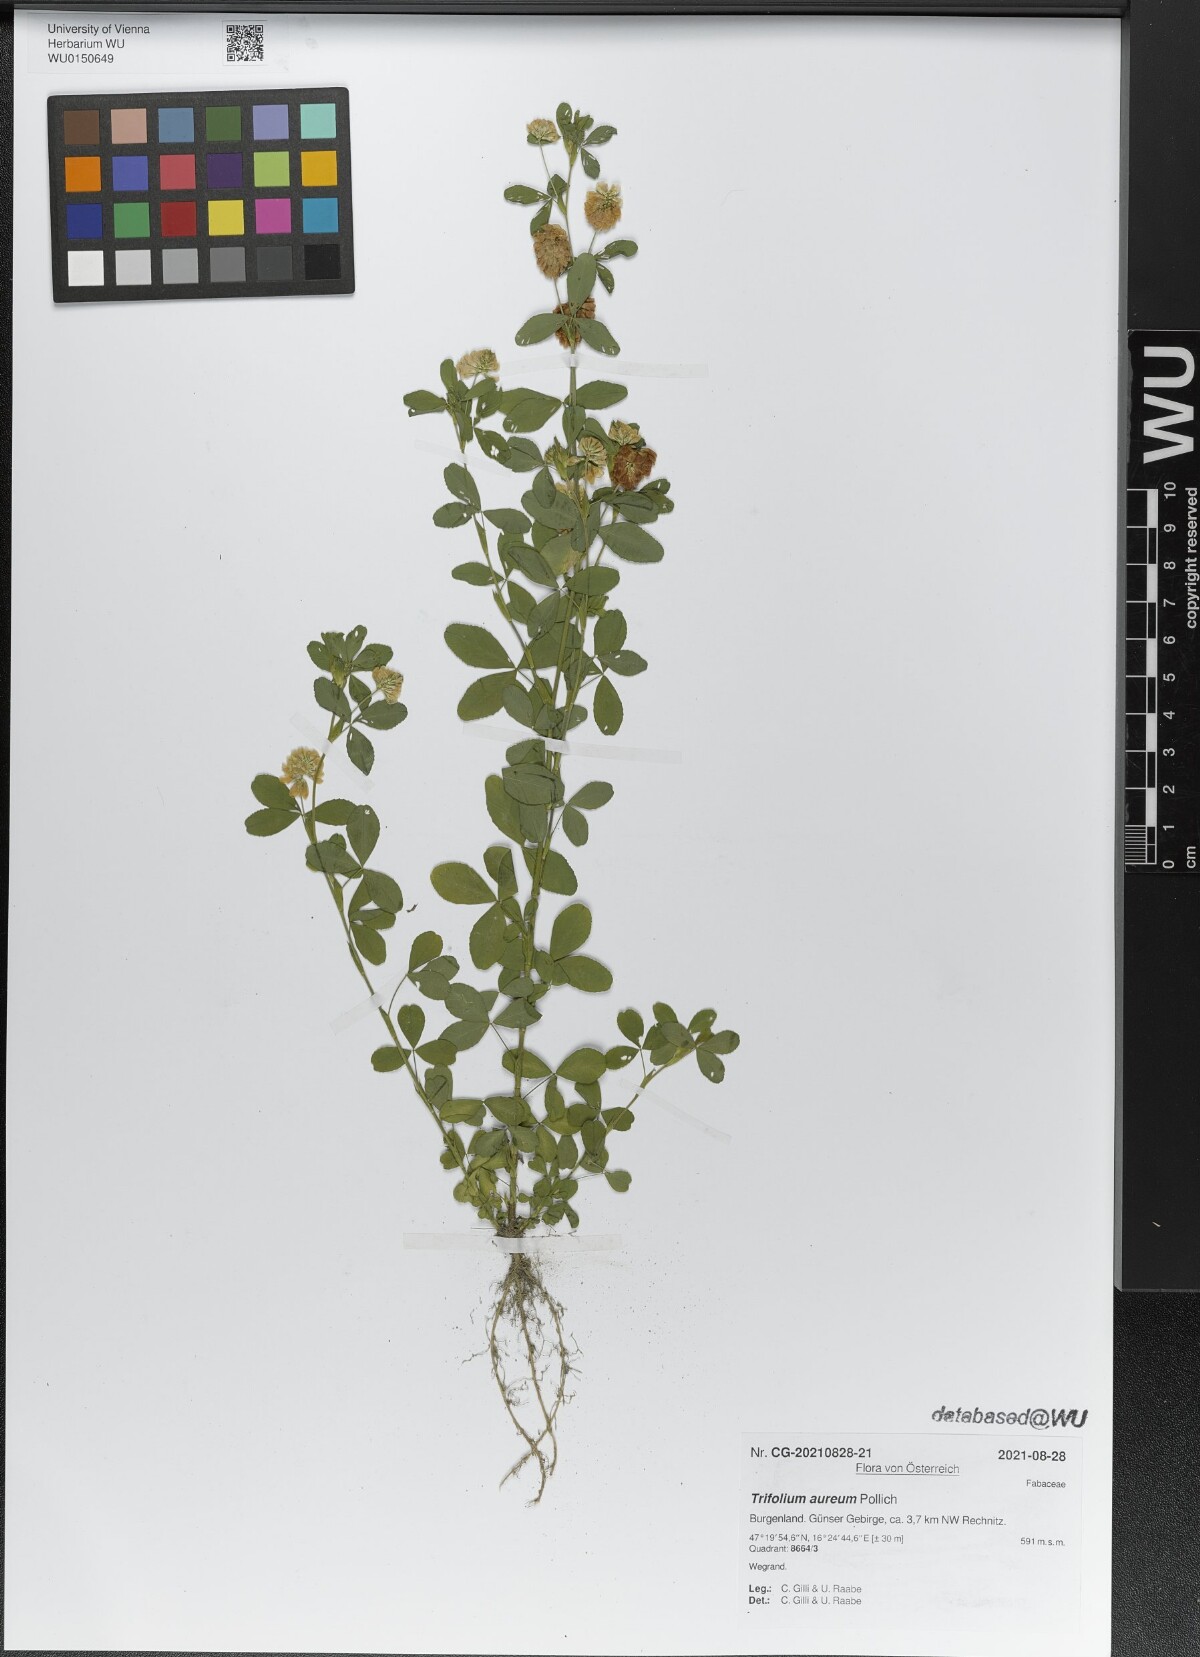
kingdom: Plantae
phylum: Tracheophyta
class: Magnoliopsida
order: Fabales
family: Fabaceae
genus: Trifolium
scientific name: Trifolium aureum
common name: Golden clover
